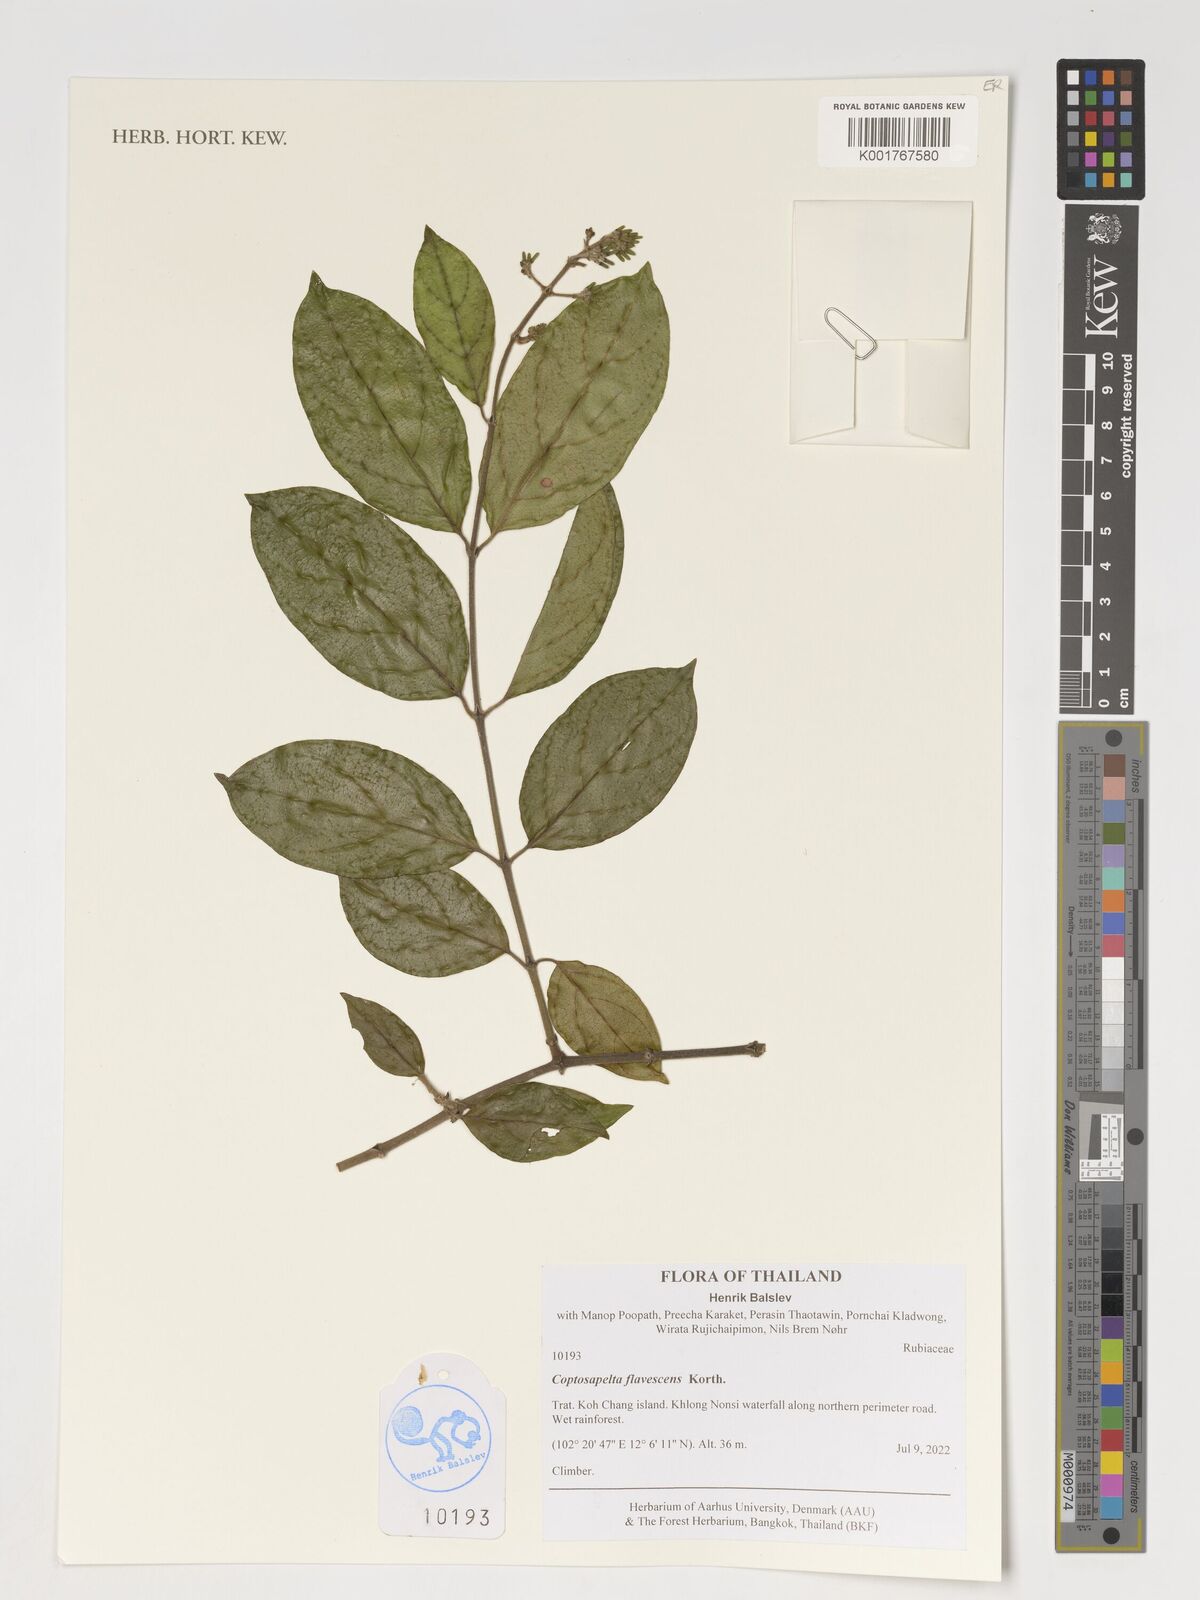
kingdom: Plantae
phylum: Tracheophyta
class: Magnoliopsida
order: Gentianales
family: Rubiaceae
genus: Coptosapelta
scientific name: Coptosapelta tomentosa
